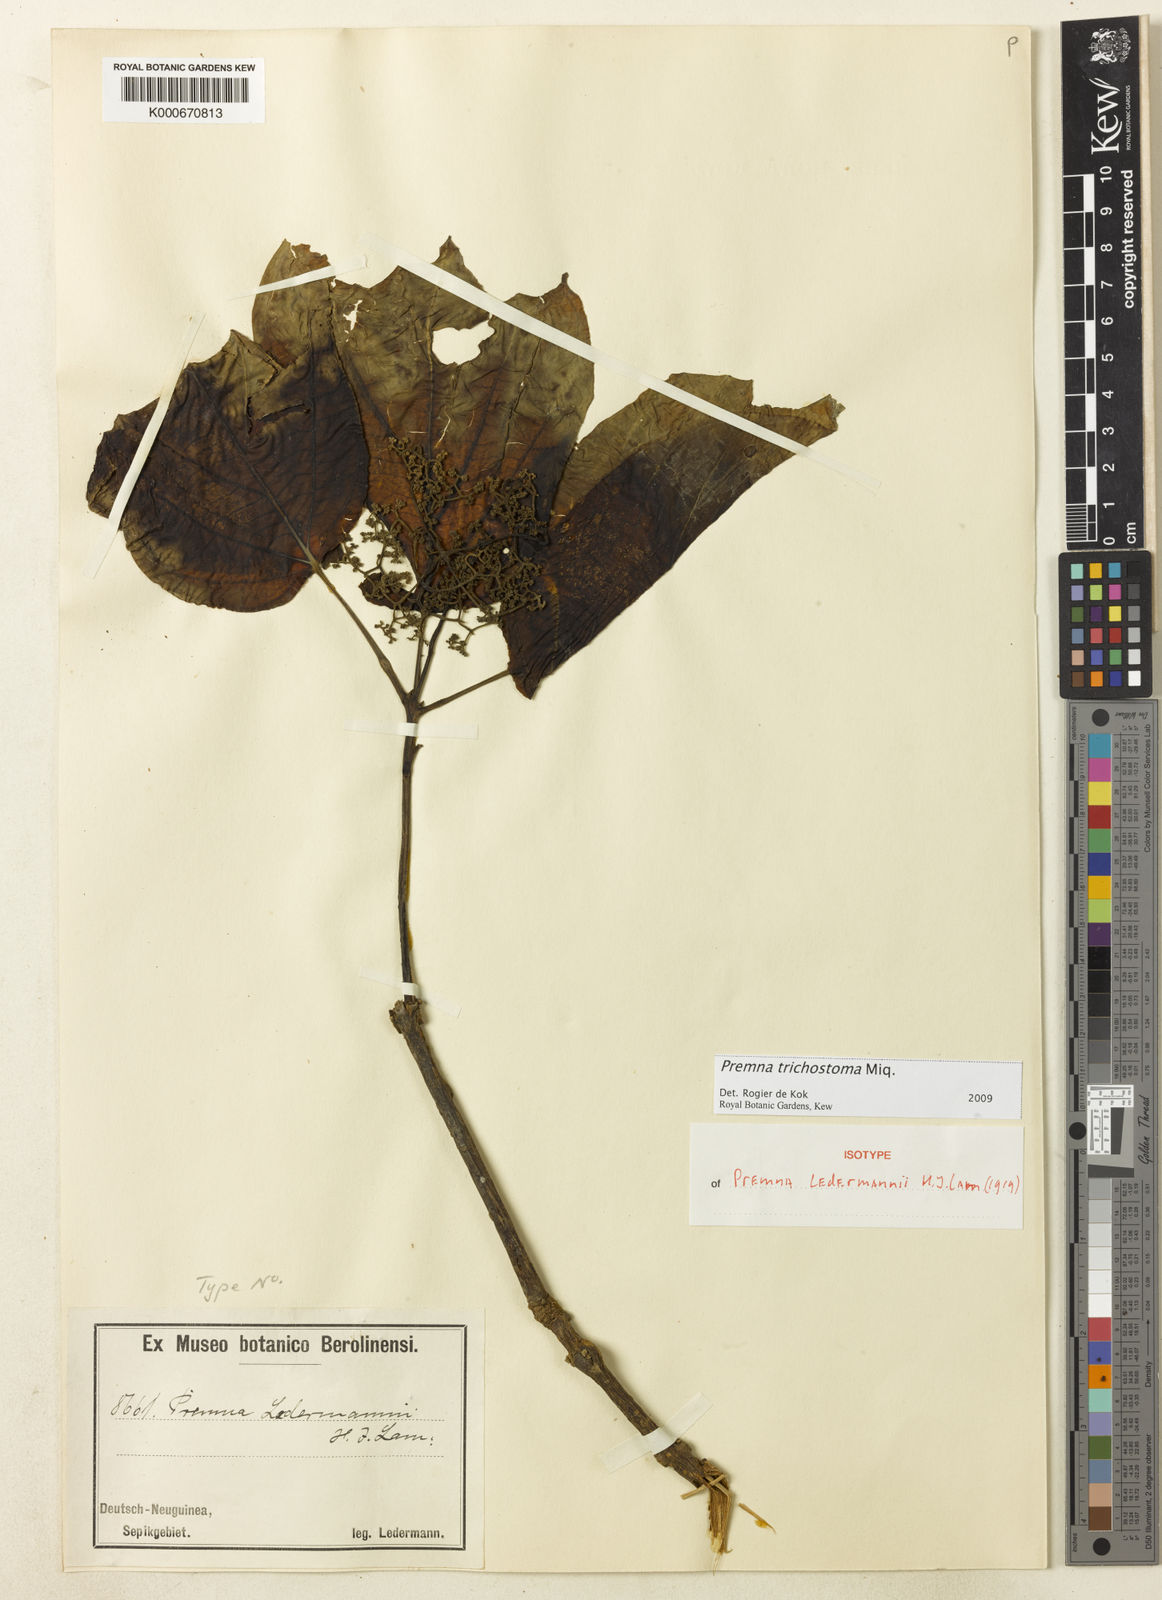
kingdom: Plantae
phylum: Tracheophyta
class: Magnoliopsida
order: Lamiales
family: Lamiaceae
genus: Premna
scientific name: Premna trichostoma
